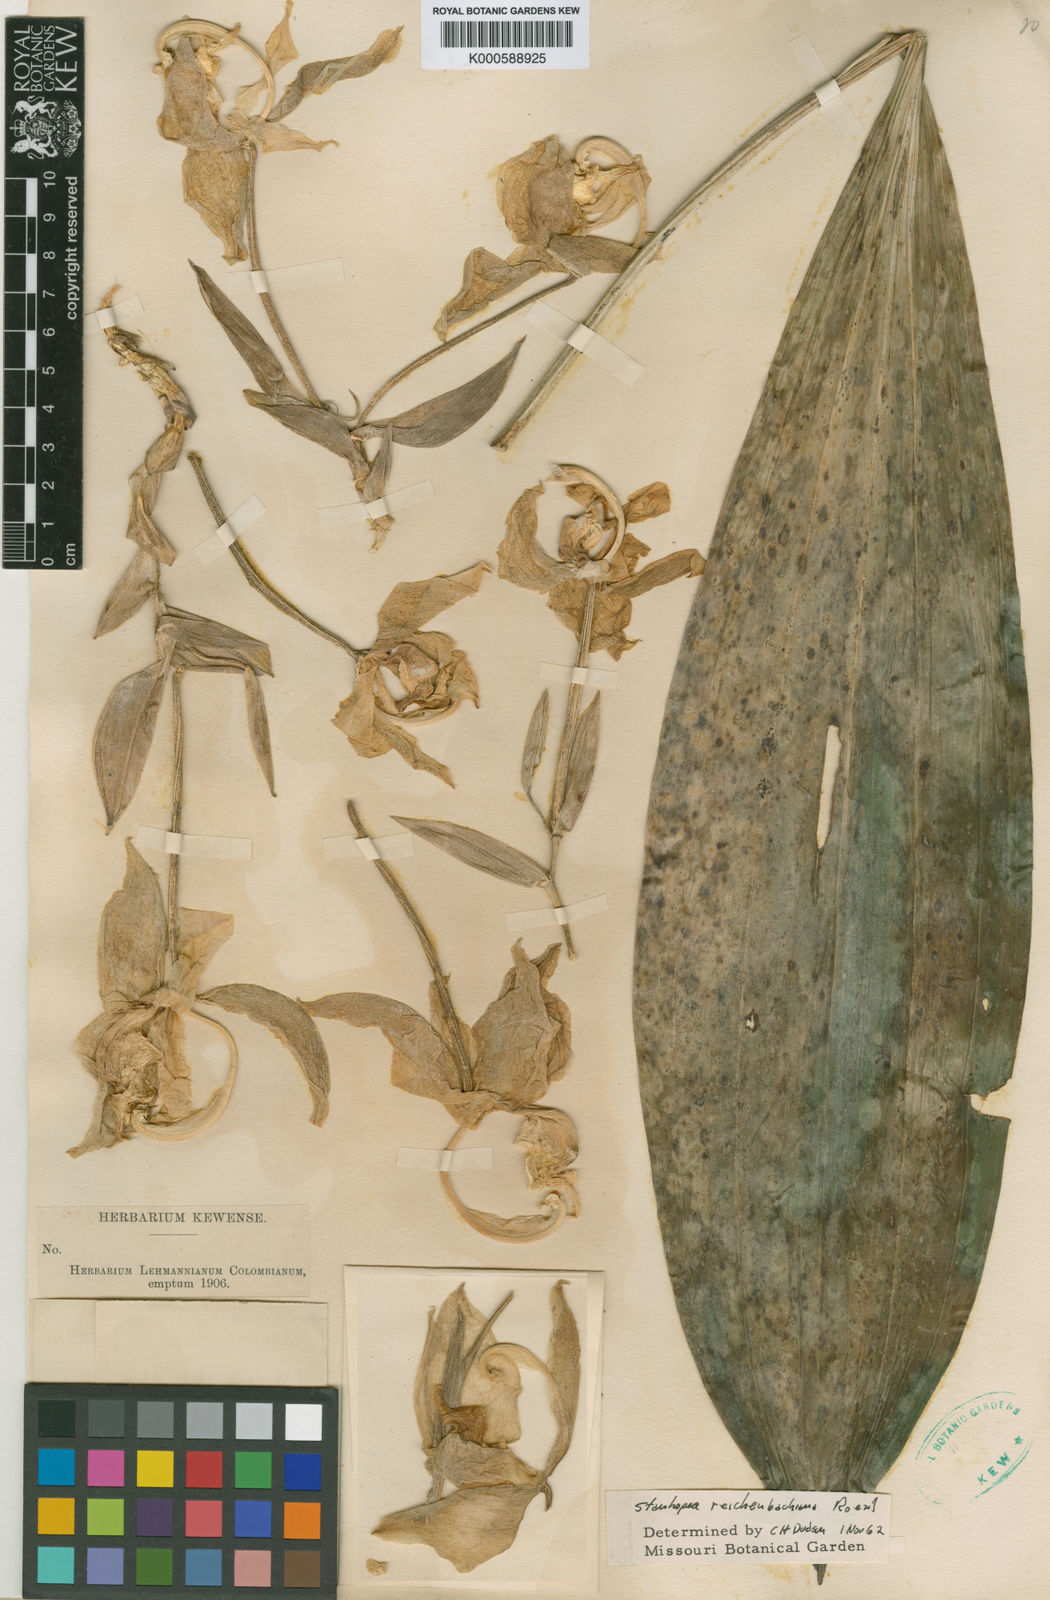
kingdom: Plantae
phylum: Tracheophyta
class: Liliopsida
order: Asparagales
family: Orchidaceae
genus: Stanhopea
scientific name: Stanhopea reichenbachiana
